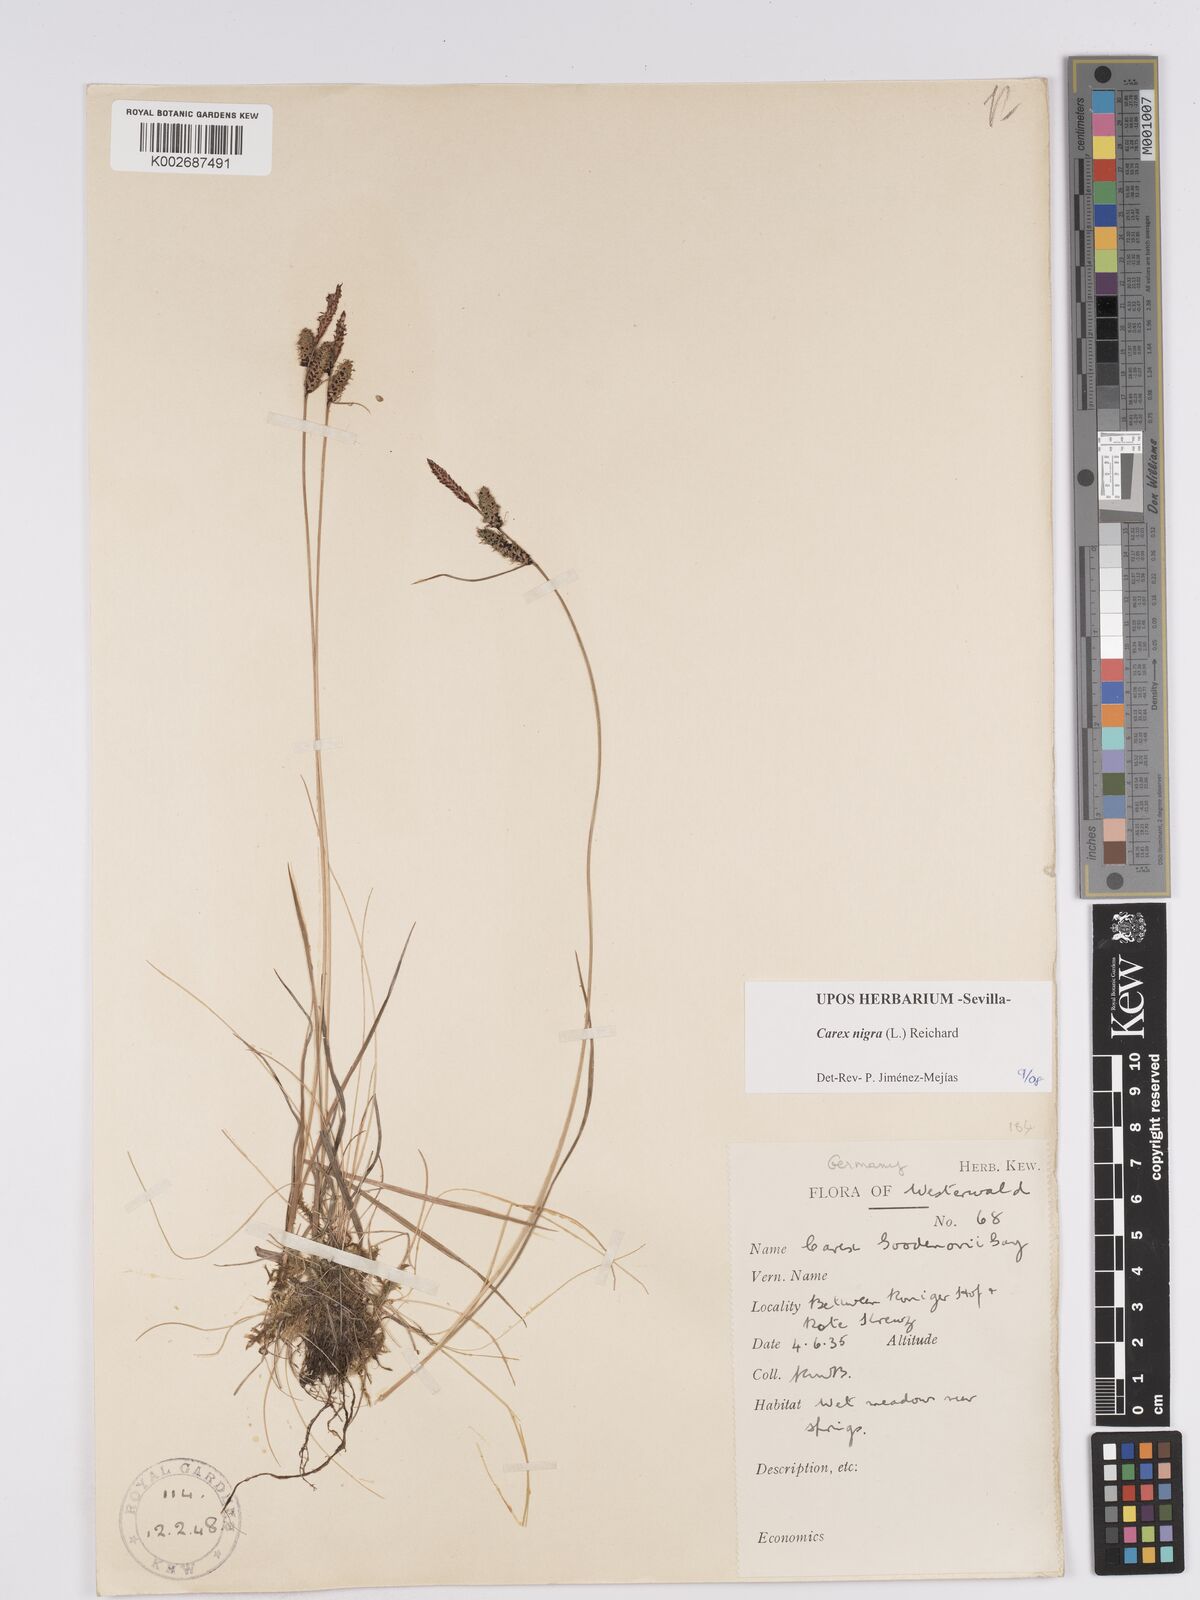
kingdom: Plantae
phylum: Tracheophyta
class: Liliopsida
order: Poales
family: Cyperaceae
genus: Carex
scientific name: Carex nigra
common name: Common sedge
